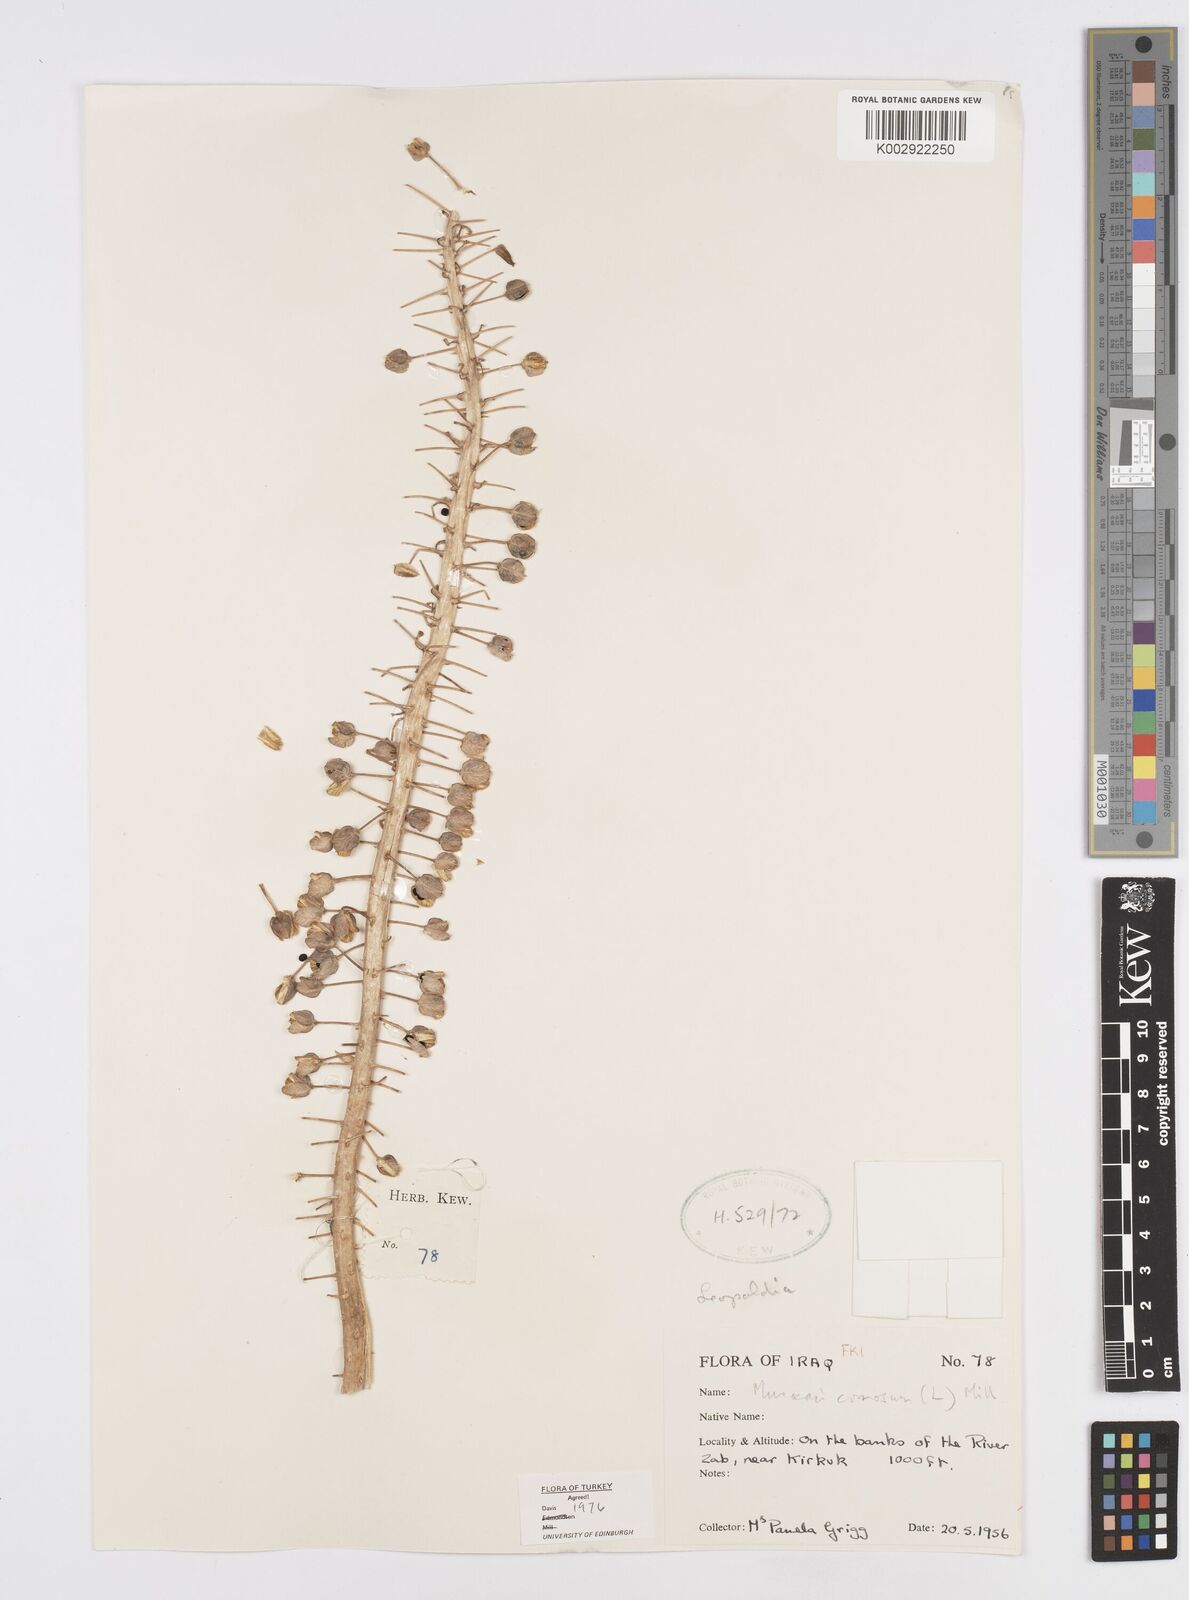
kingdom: Plantae
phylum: Tracheophyta
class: Liliopsida
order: Asparagales
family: Asparagaceae
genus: Muscari
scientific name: Muscari comosum
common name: Tassel hyacinth
